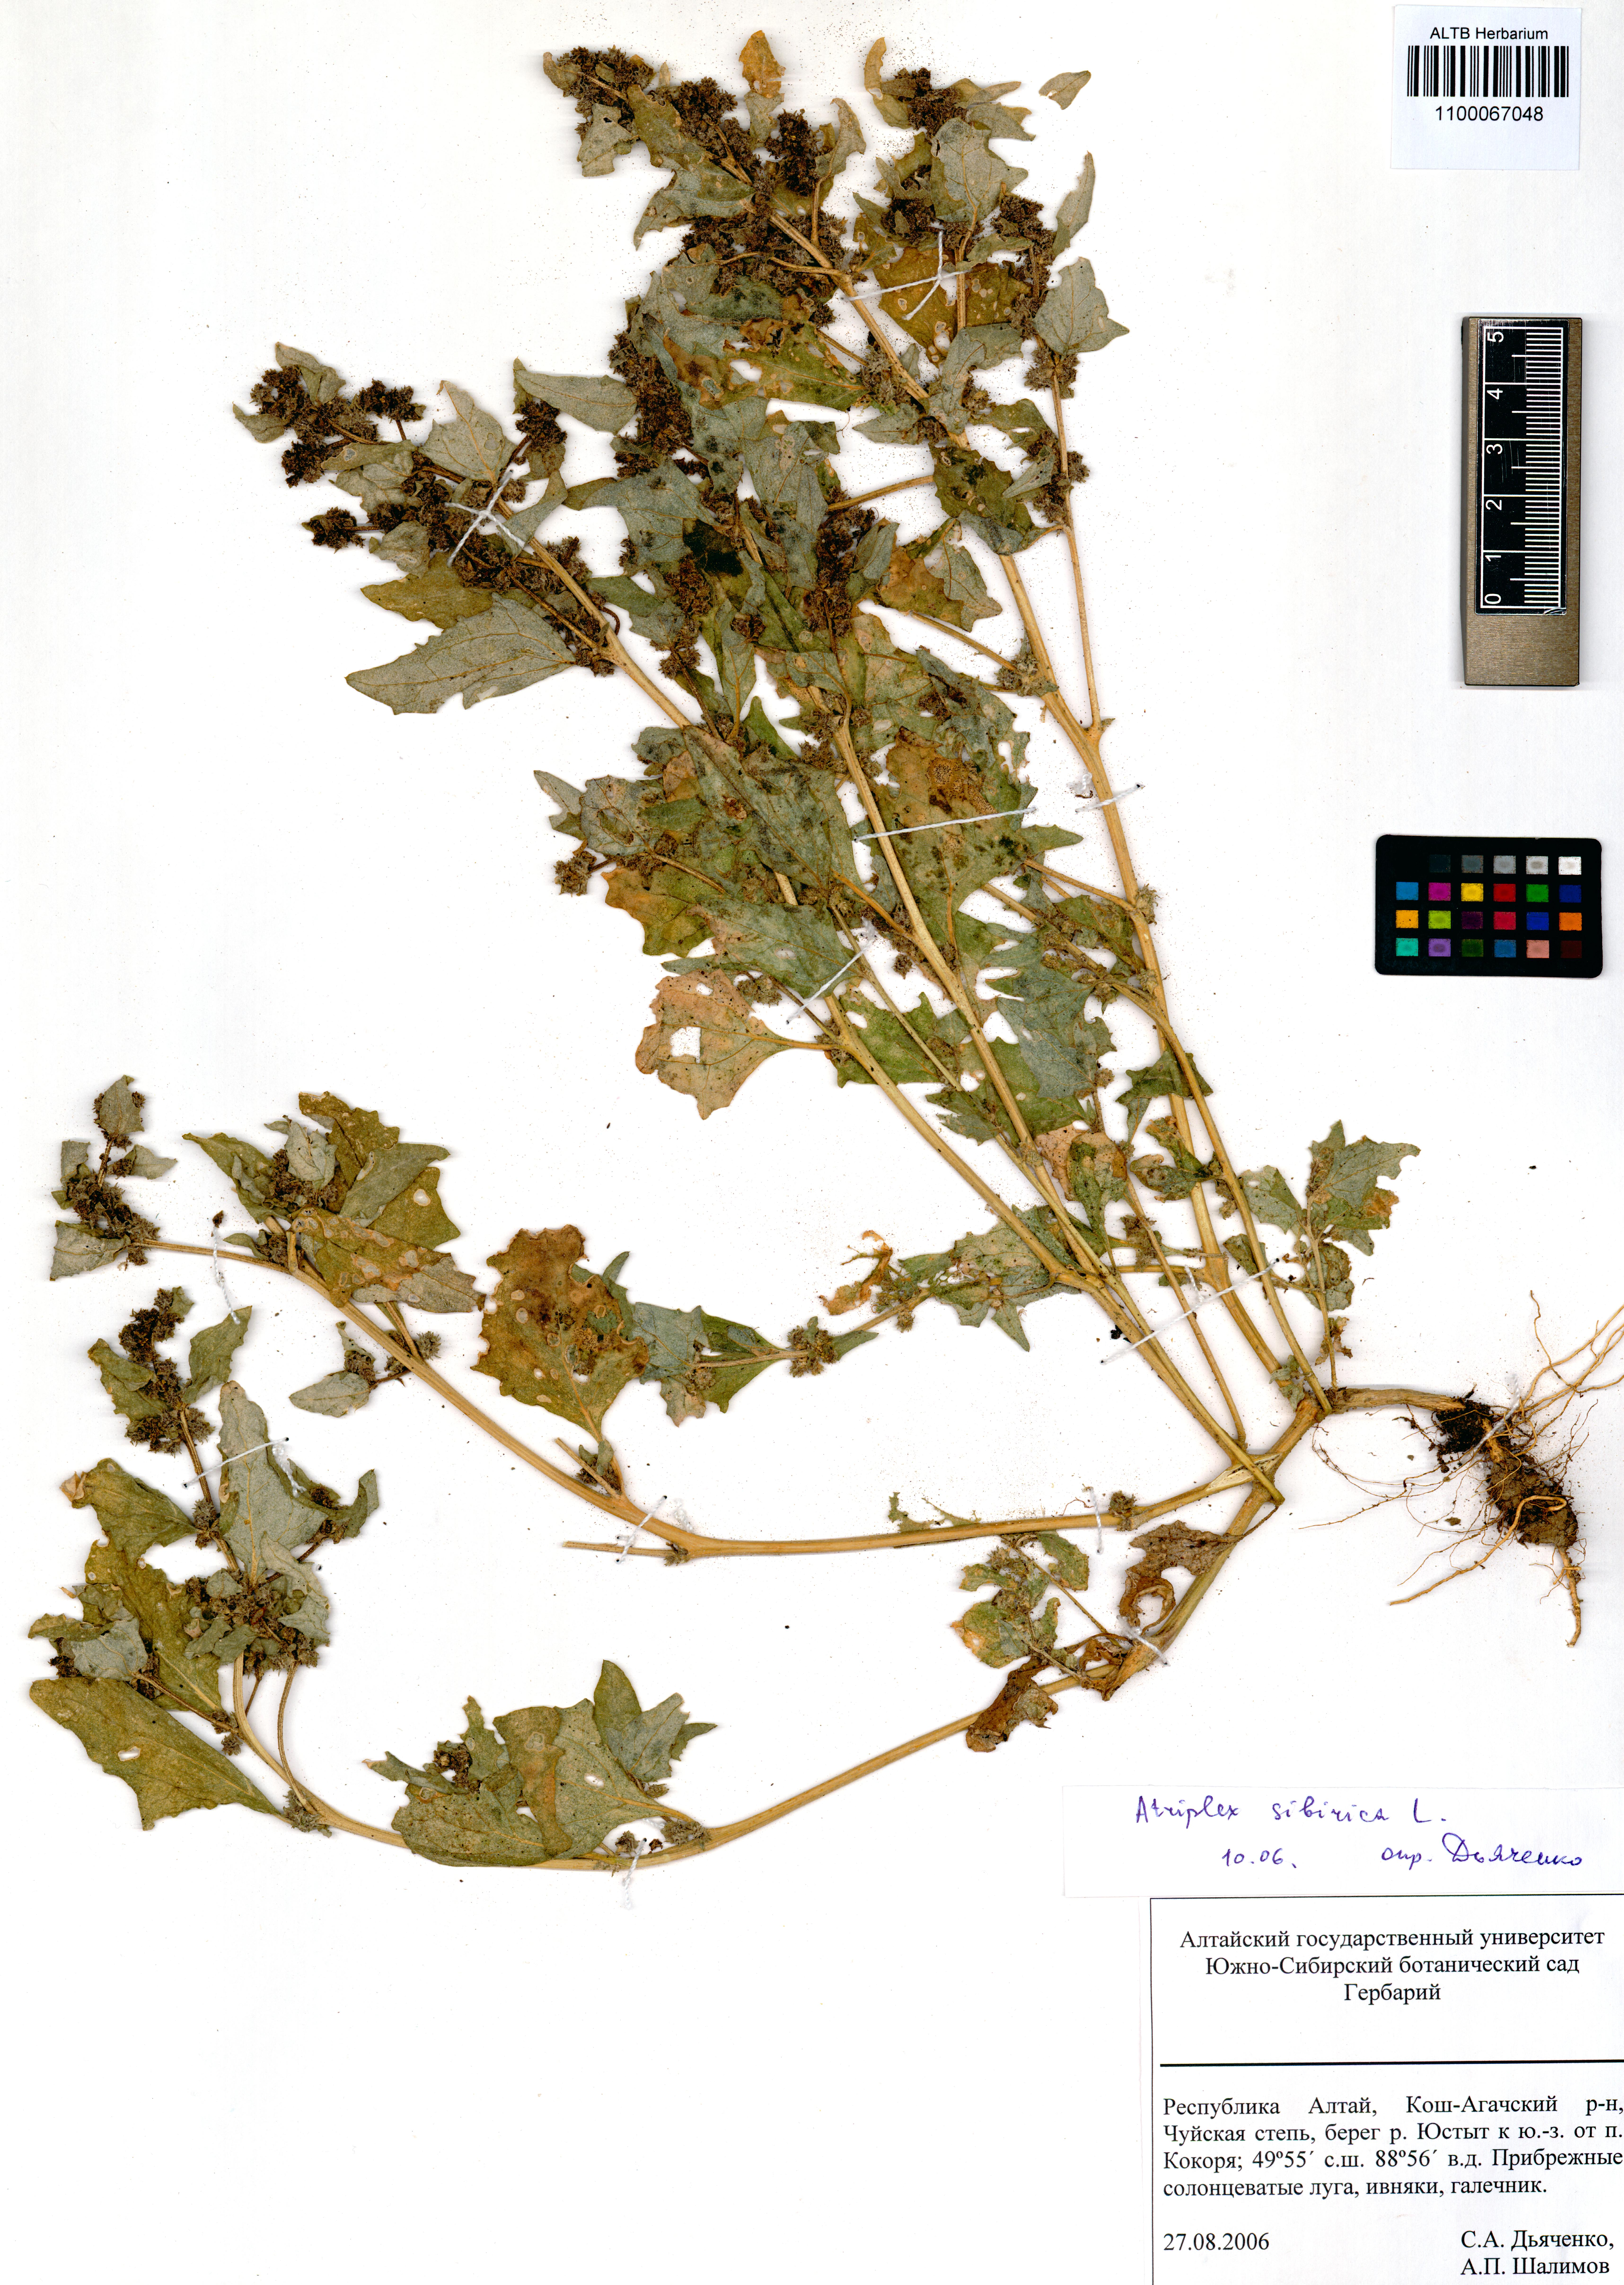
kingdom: Plantae
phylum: Tracheophyta
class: Magnoliopsida
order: Caryophyllales
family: Amaranthaceae
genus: Atriplex
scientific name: Atriplex sibirica
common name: Siberian saltbush
